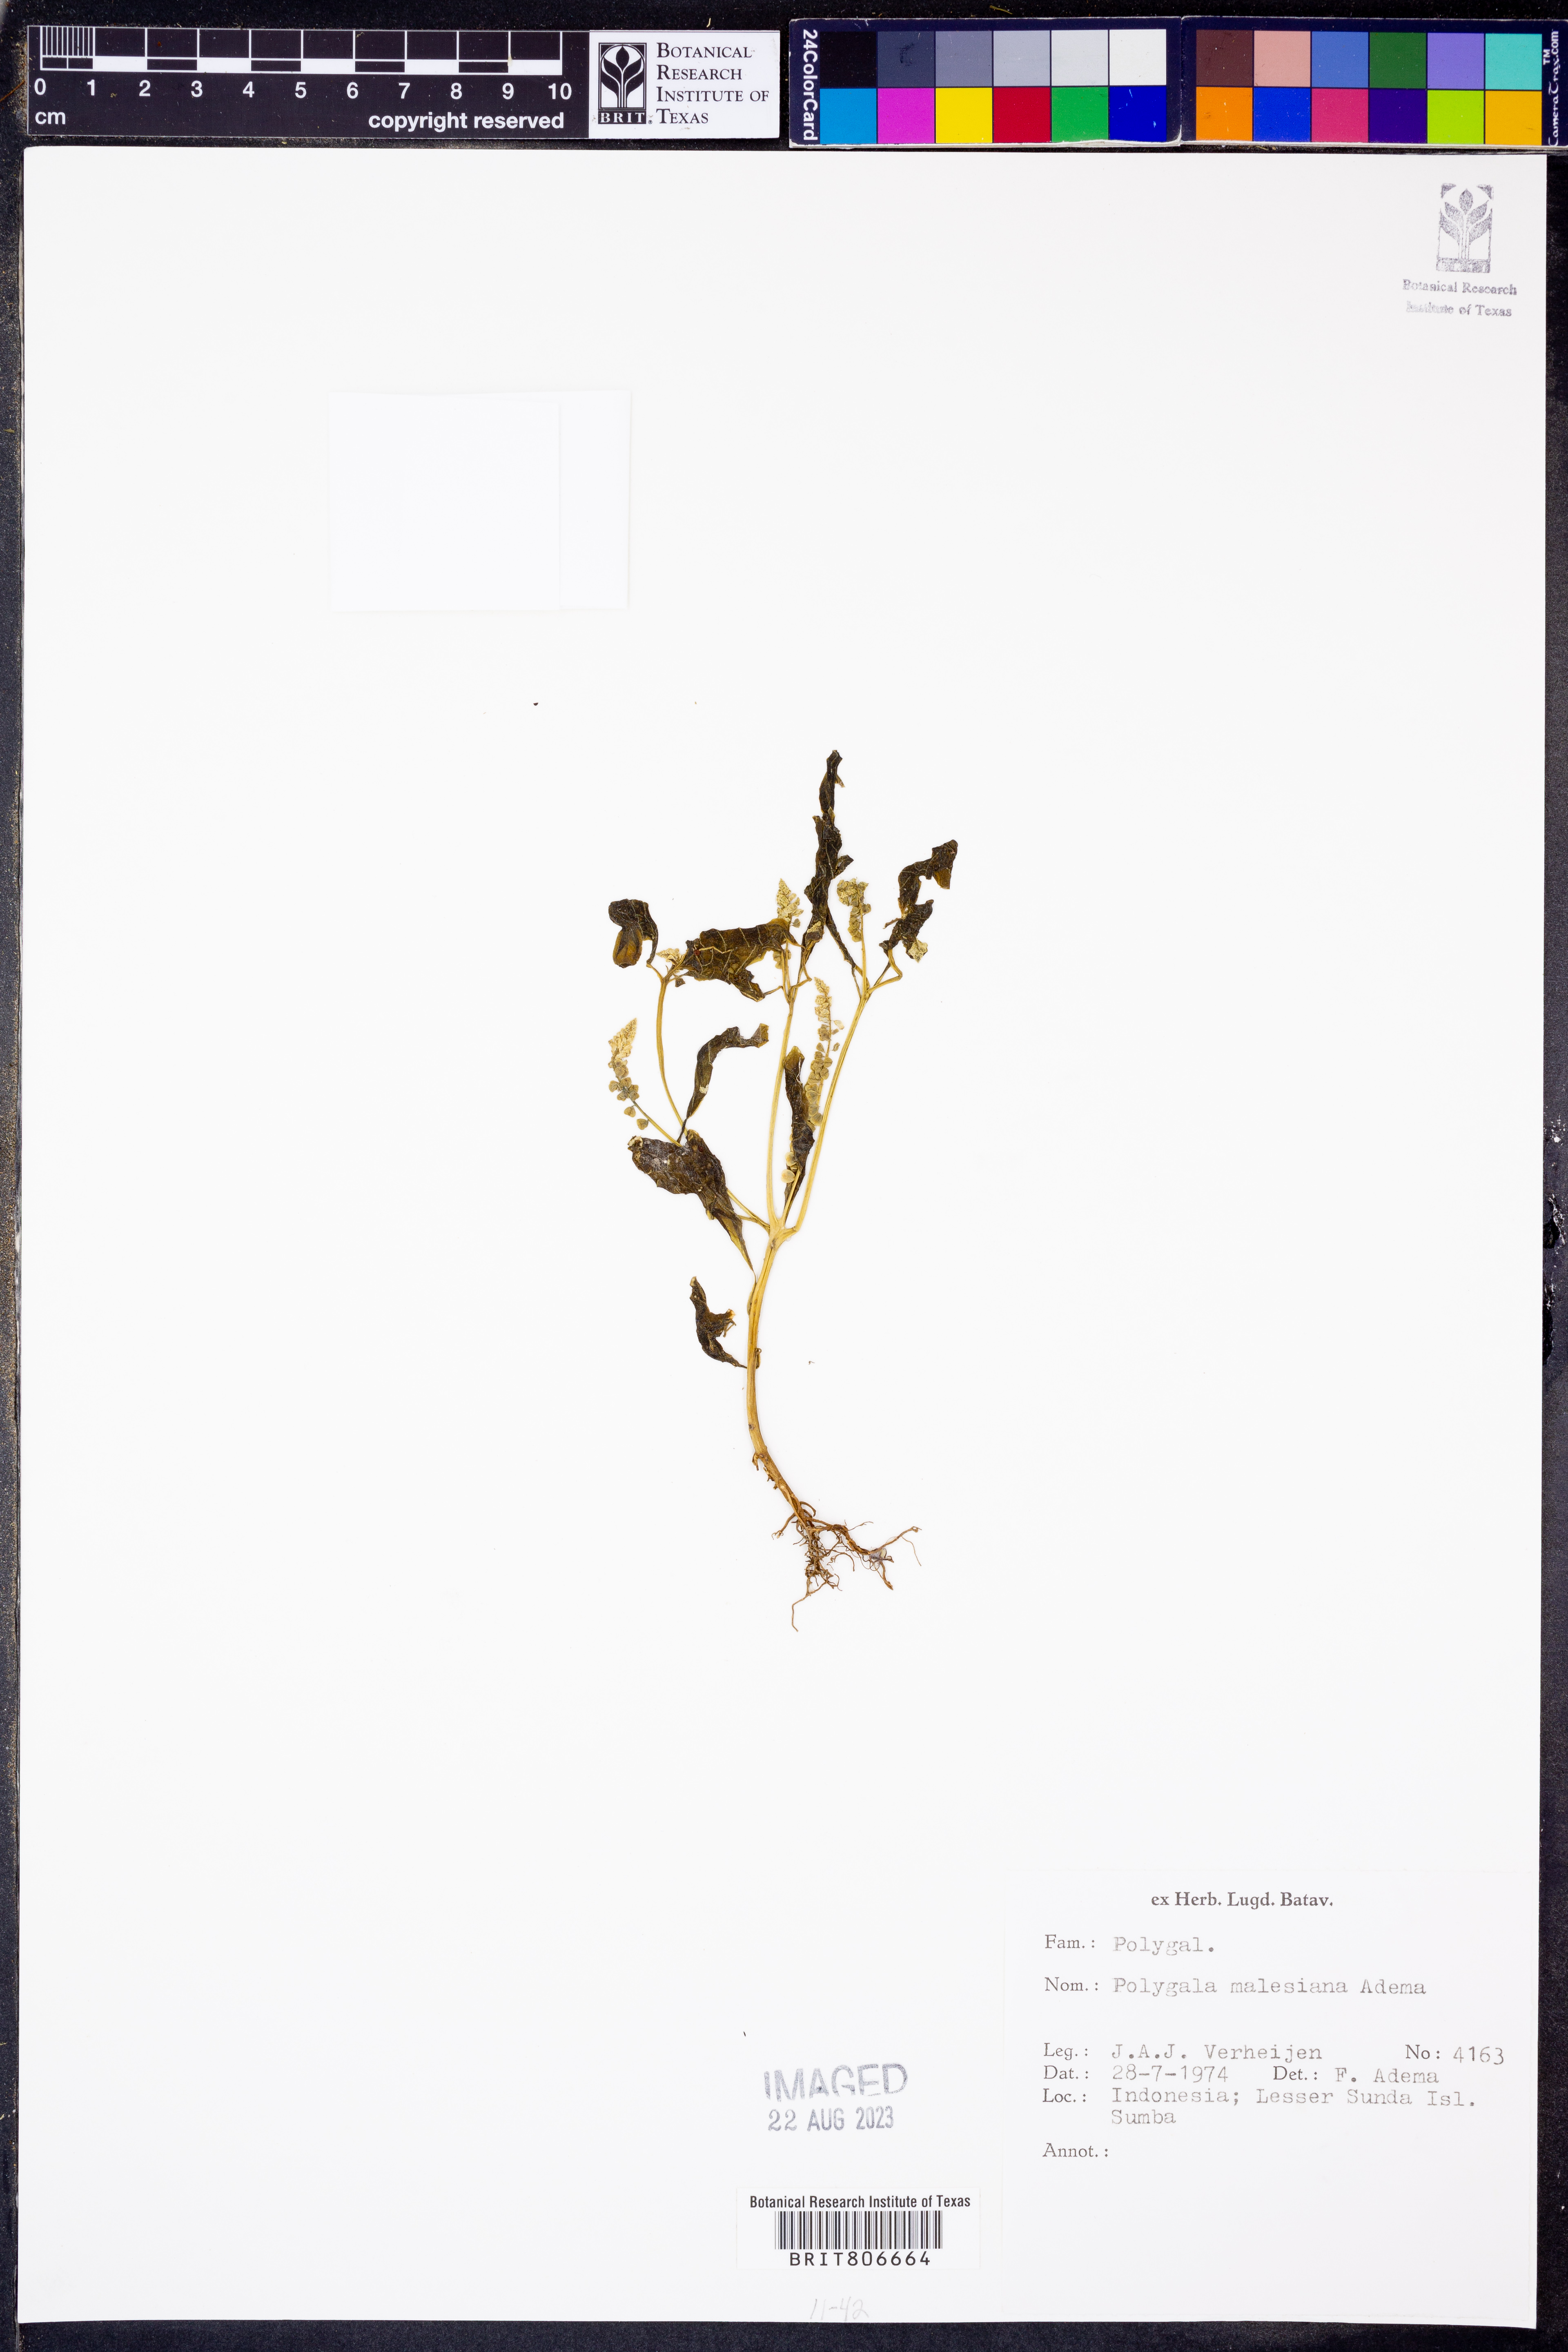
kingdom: Plantae
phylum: Tracheophyta
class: Magnoliopsida
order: Fabales
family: Polygalaceae
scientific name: Polygalaceae
